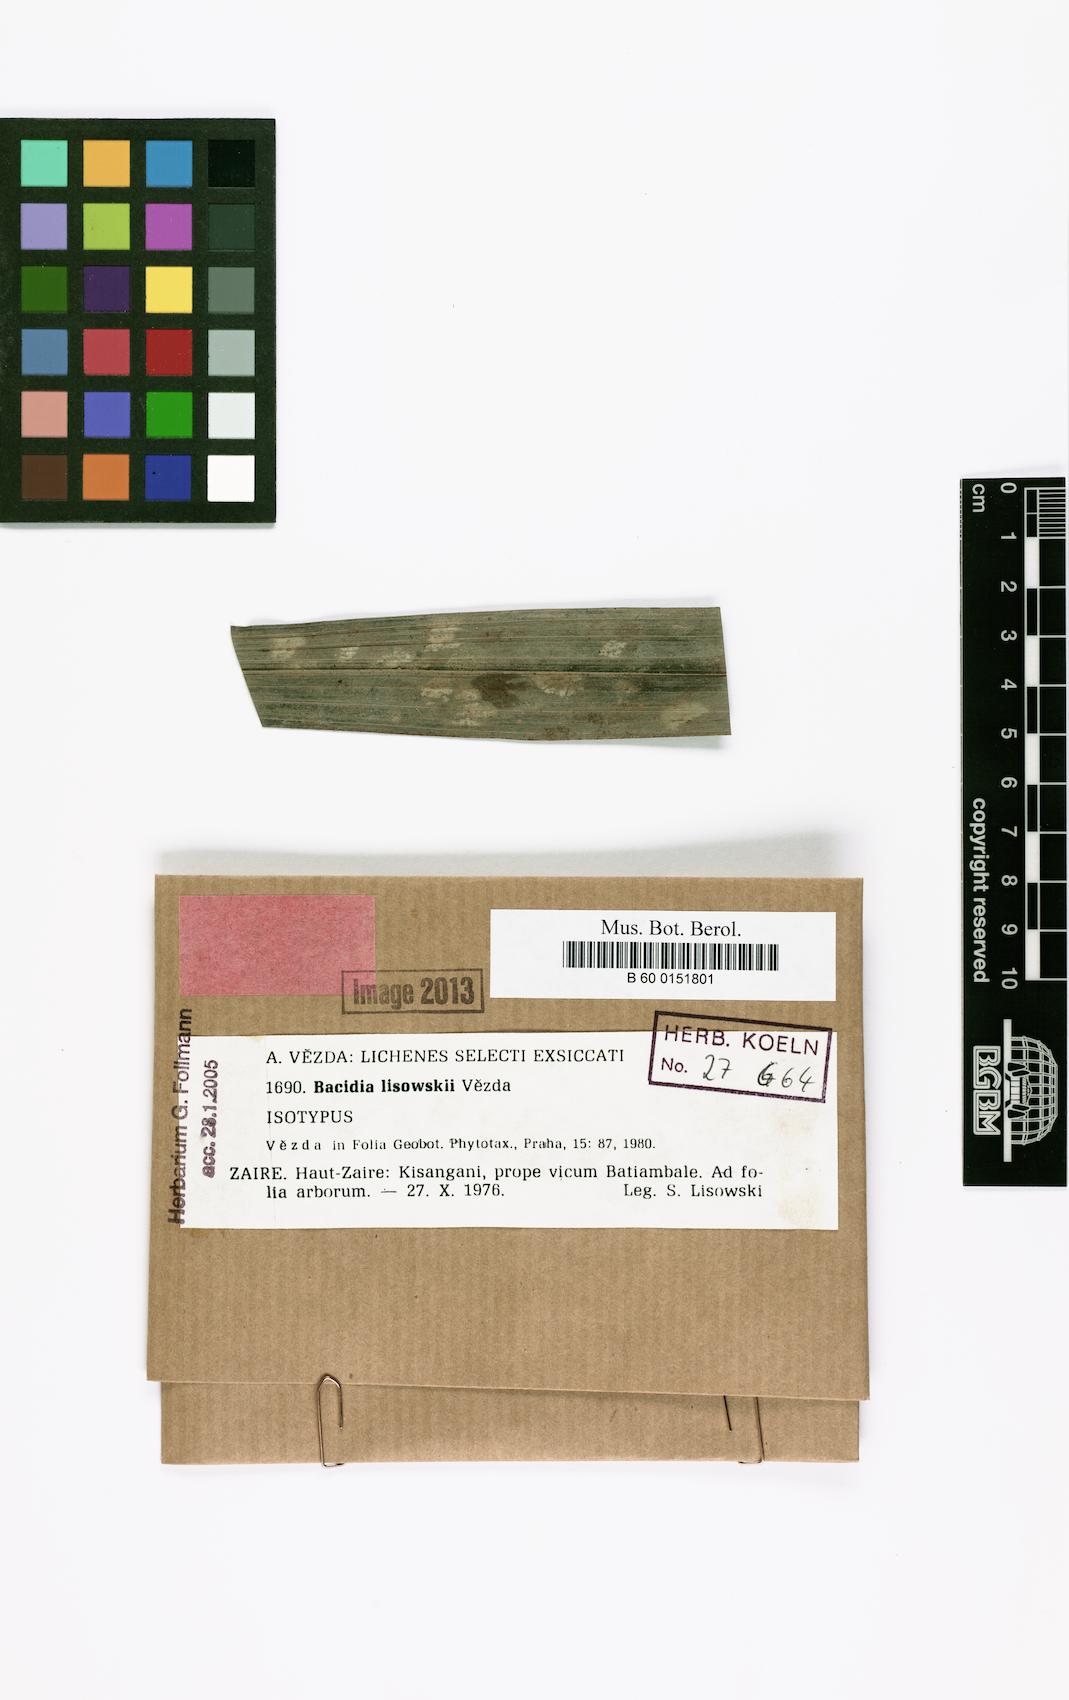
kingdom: Fungi
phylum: Ascomycota
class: Lecanoromycetes
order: Lecanorales
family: Byssolomataceae
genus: Fellhanera
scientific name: Fellhanera lisowskii
